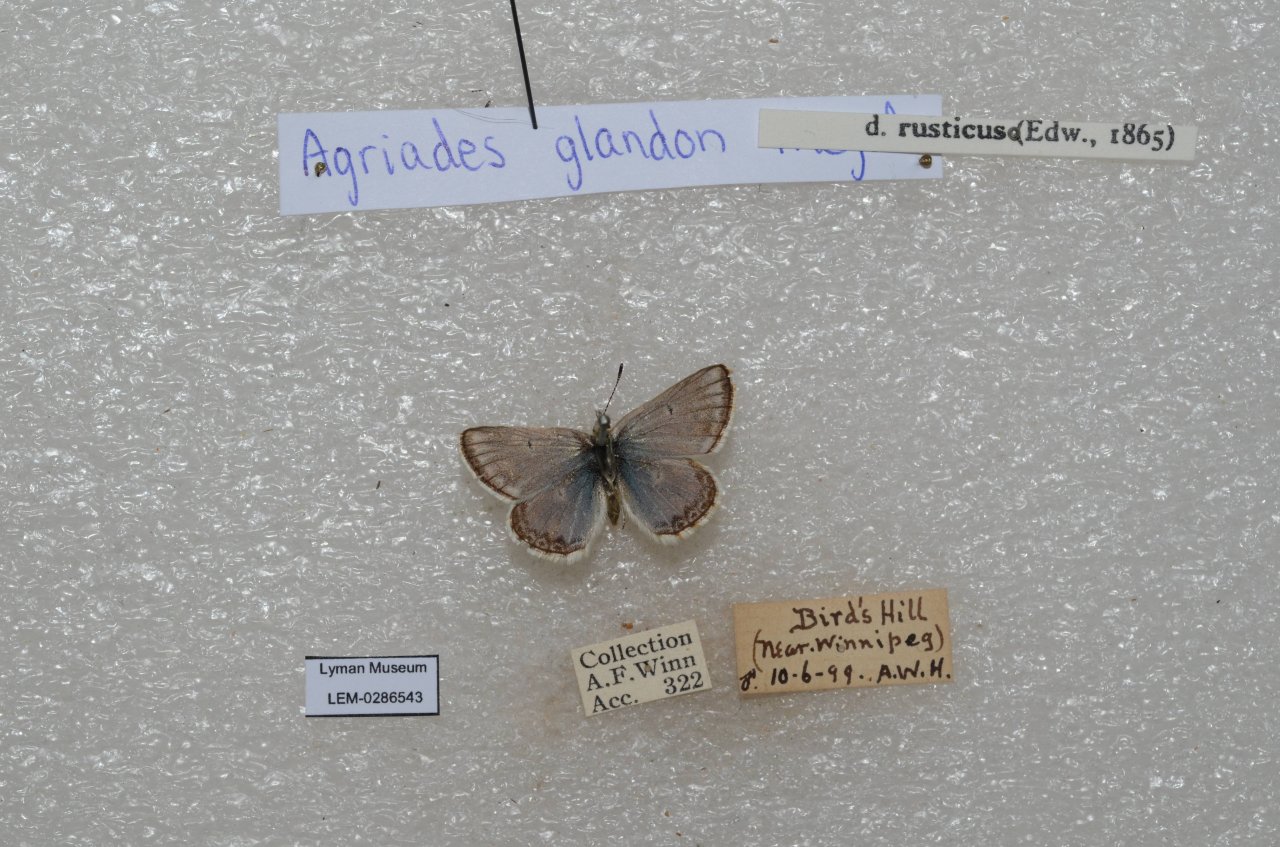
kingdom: Animalia
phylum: Arthropoda
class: Insecta
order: Lepidoptera
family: Lycaenidae
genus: Agriades
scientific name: Agriades glandon
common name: Arctic Blue
